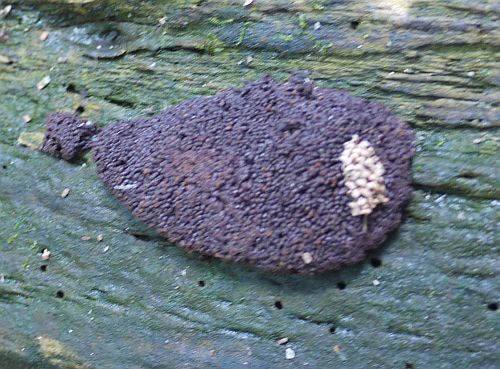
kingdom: Protozoa
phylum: Mycetozoa
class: Myxomycetes
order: Cribrariales
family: Tubiferaceae
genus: Tubifera
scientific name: Tubifera ferruginosa
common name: kanel-støvrør
